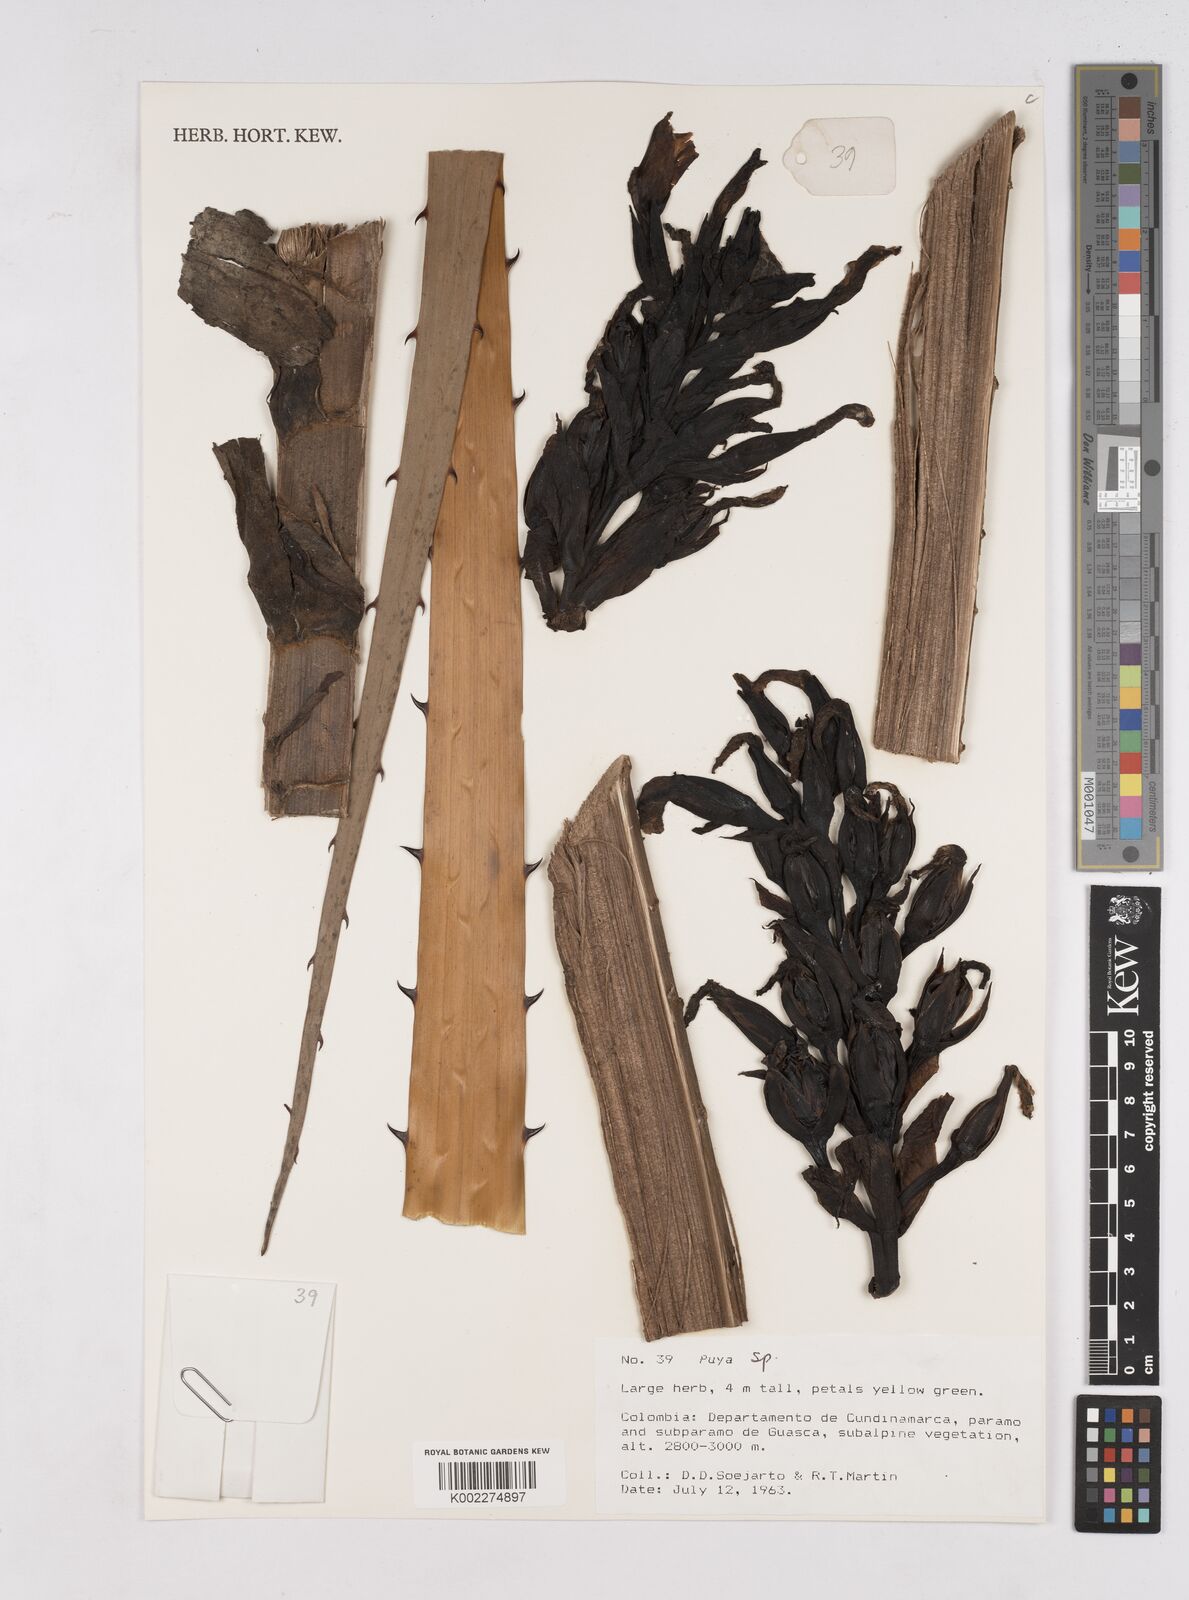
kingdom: Plantae
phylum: Tracheophyta
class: Liliopsida
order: Poales
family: Bromeliaceae
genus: Puya
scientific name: Puya
